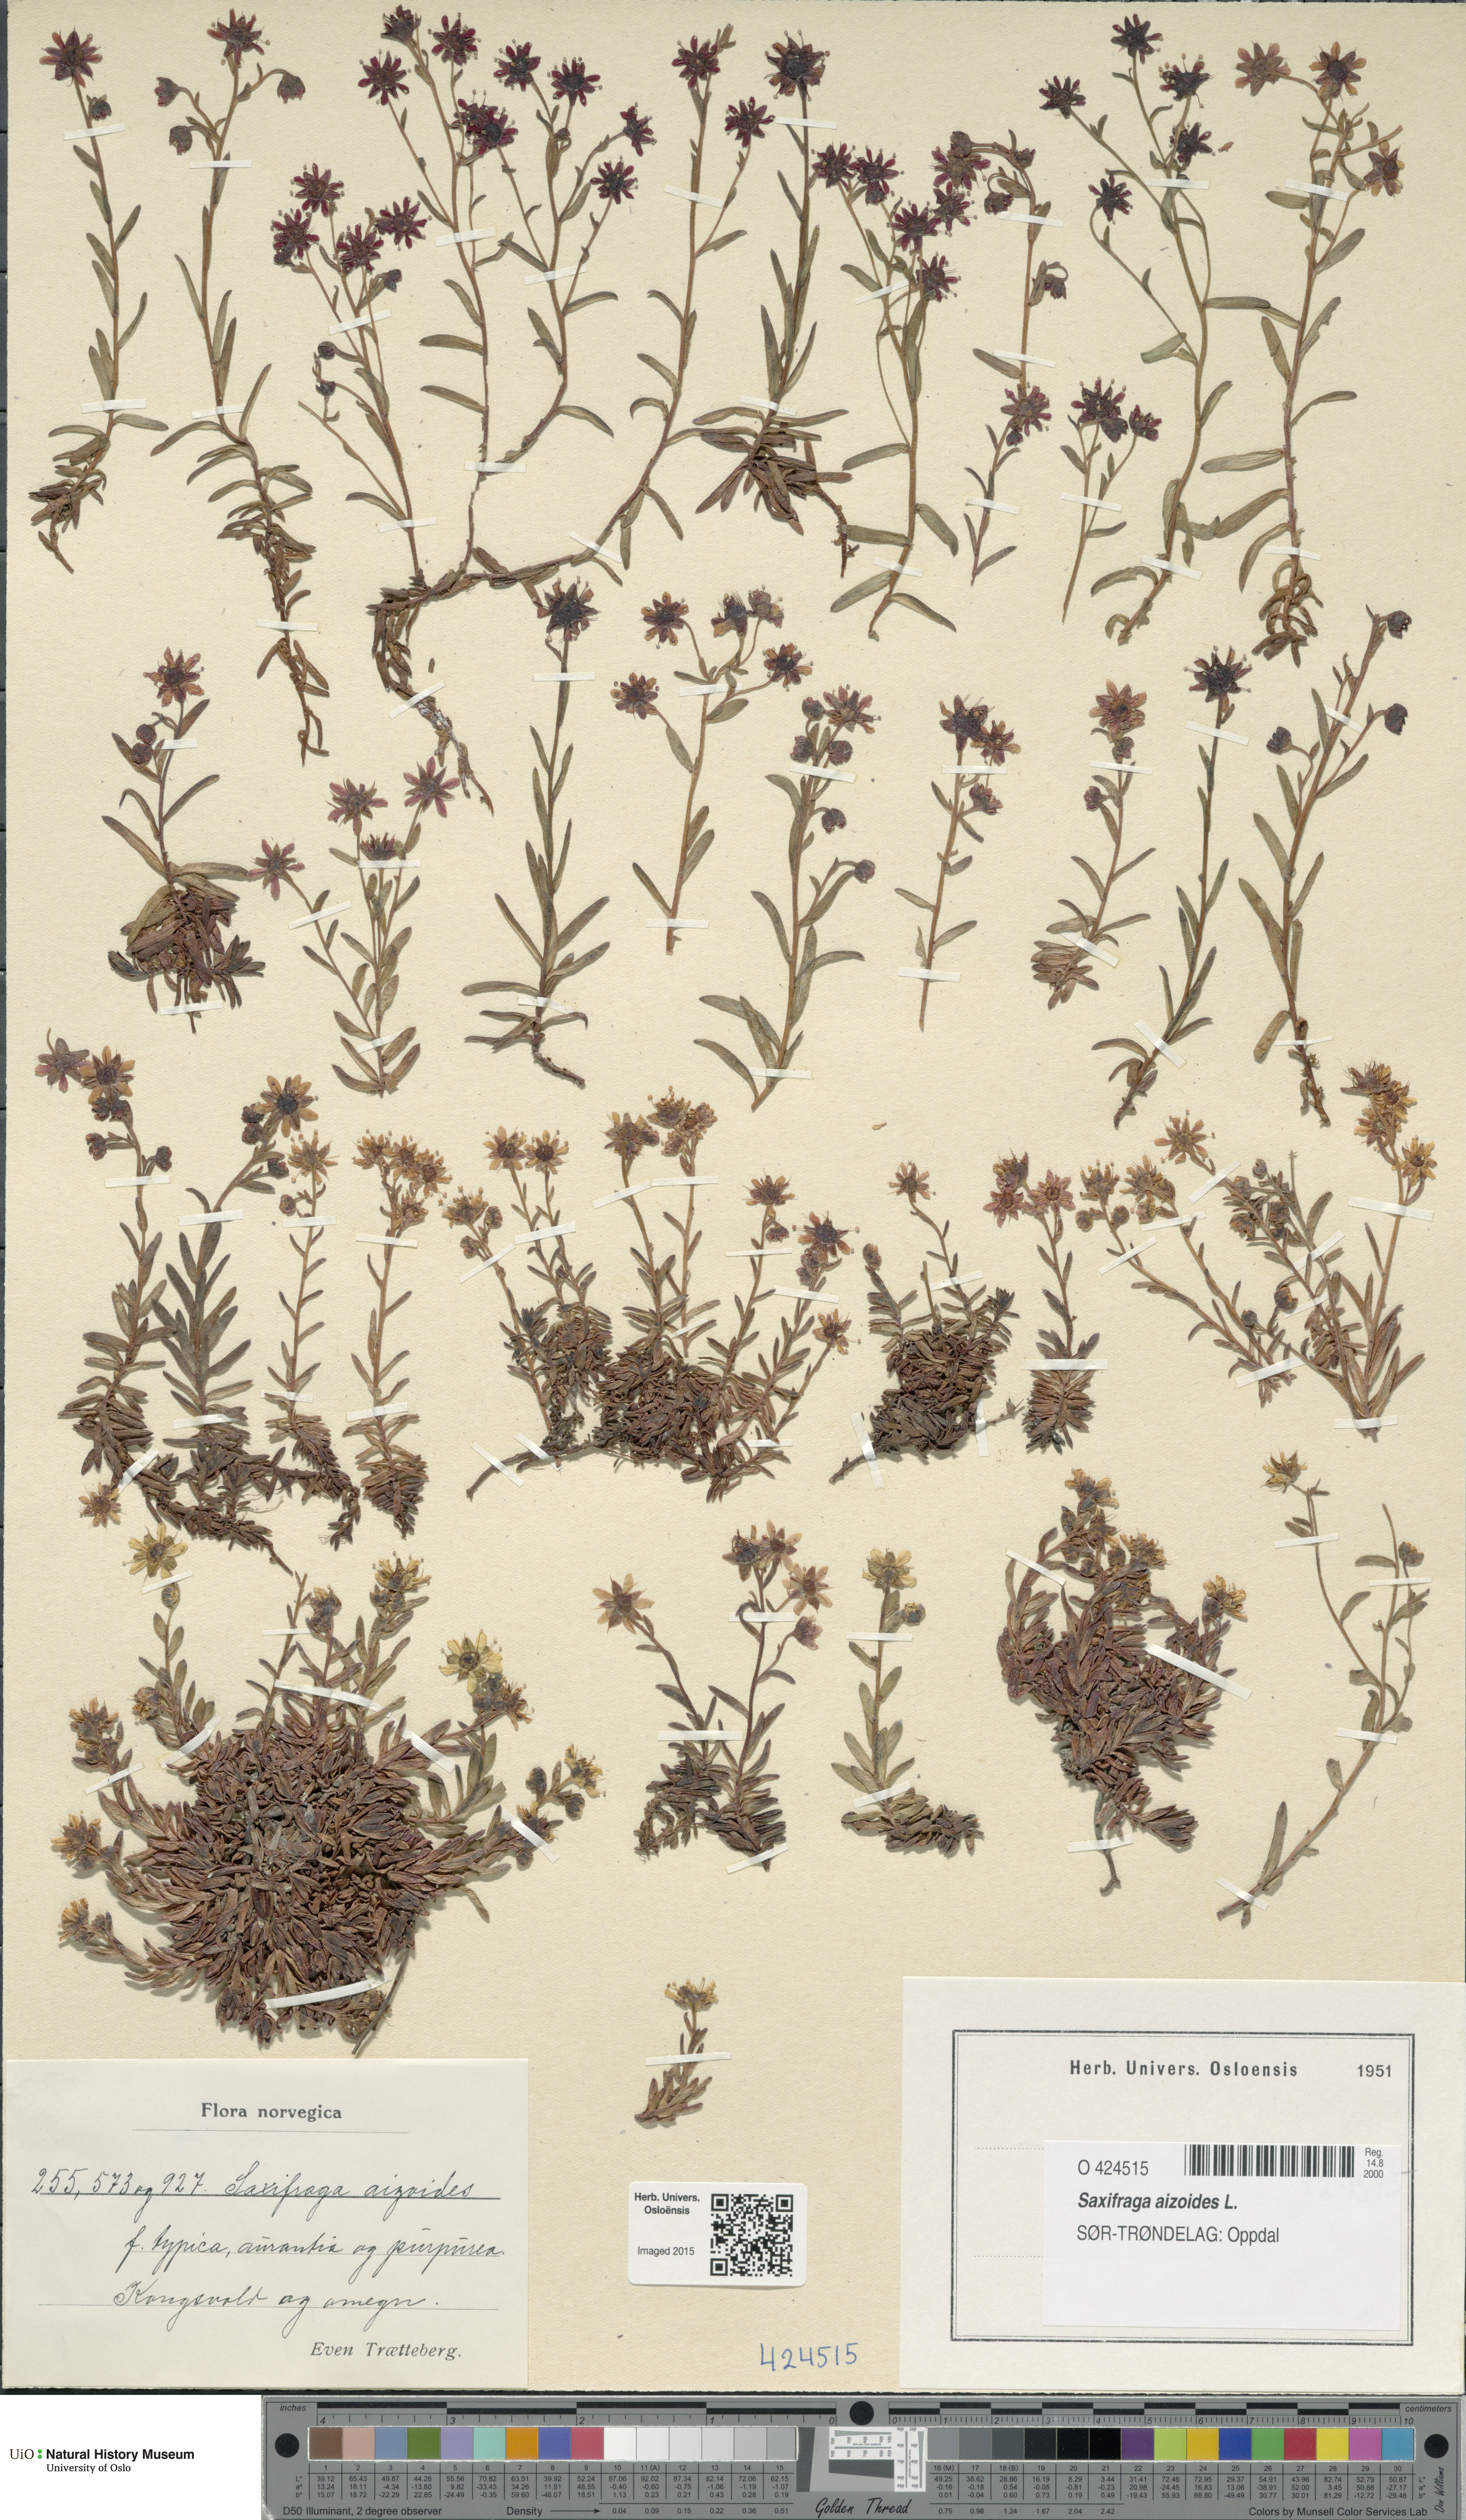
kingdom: Plantae
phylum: Tracheophyta
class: Magnoliopsida
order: Saxifragales
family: Saxifragaceae
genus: Saxifraga
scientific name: Saxifraga aizoides
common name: Yellow mountain saxifrage
